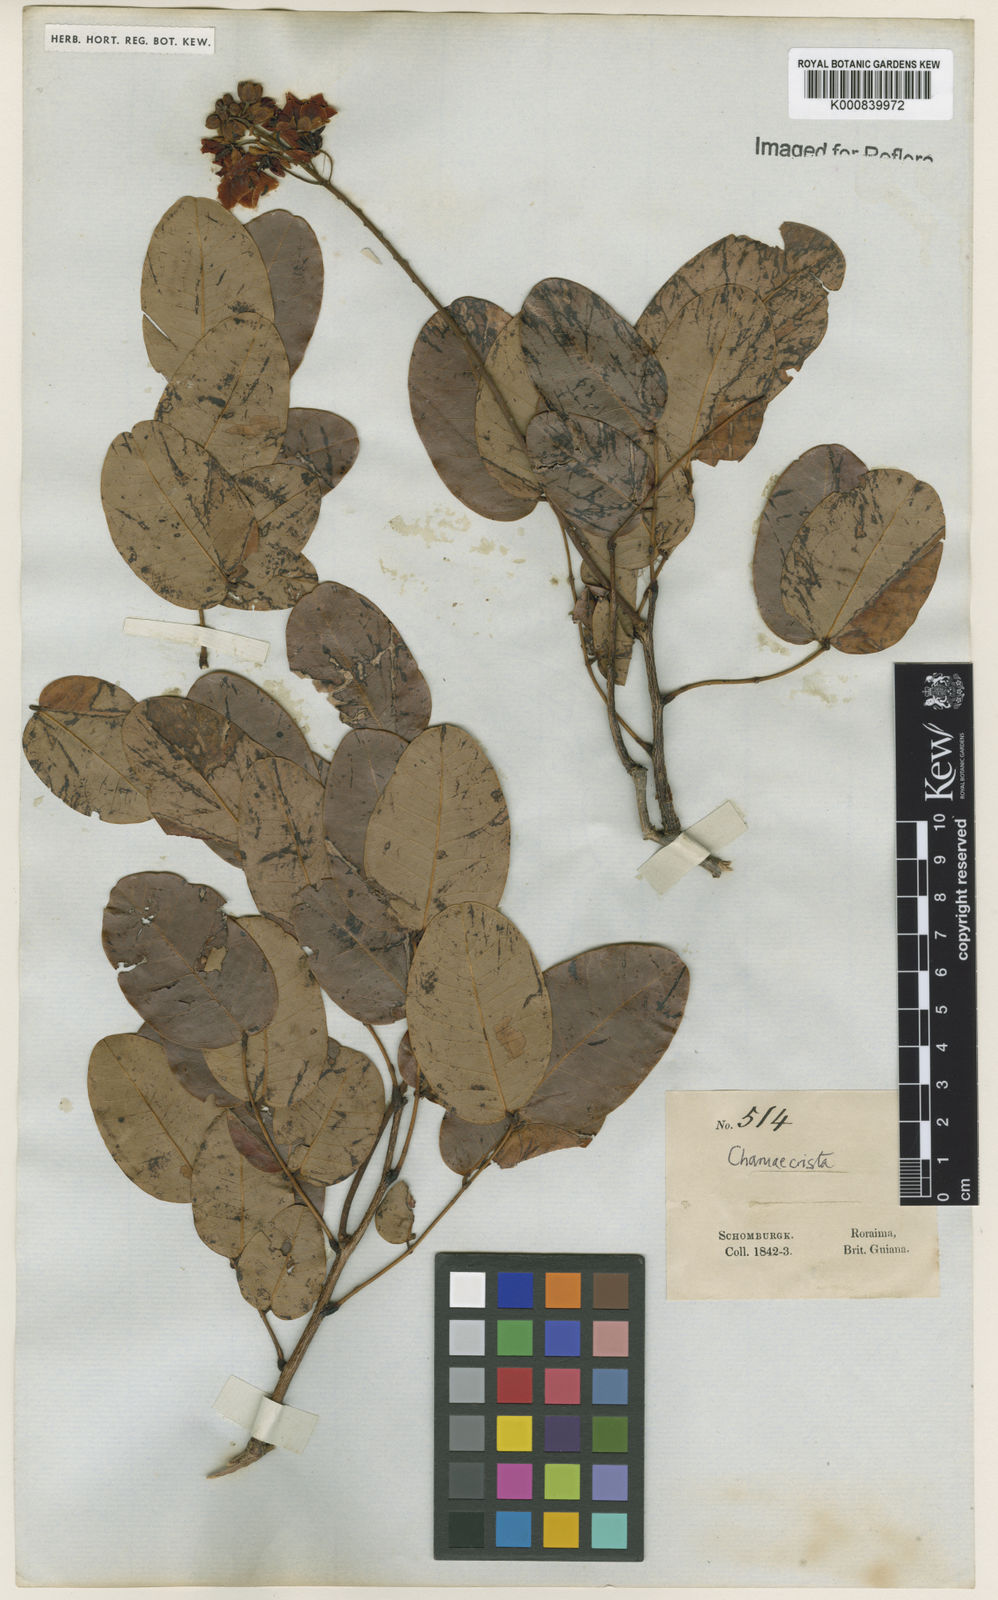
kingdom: Plantae
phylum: Tracheophyta
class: Magnoliopsida
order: Fabales
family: Fabaceae
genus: Chamaecrista
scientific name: Chamaecrista polystachya
